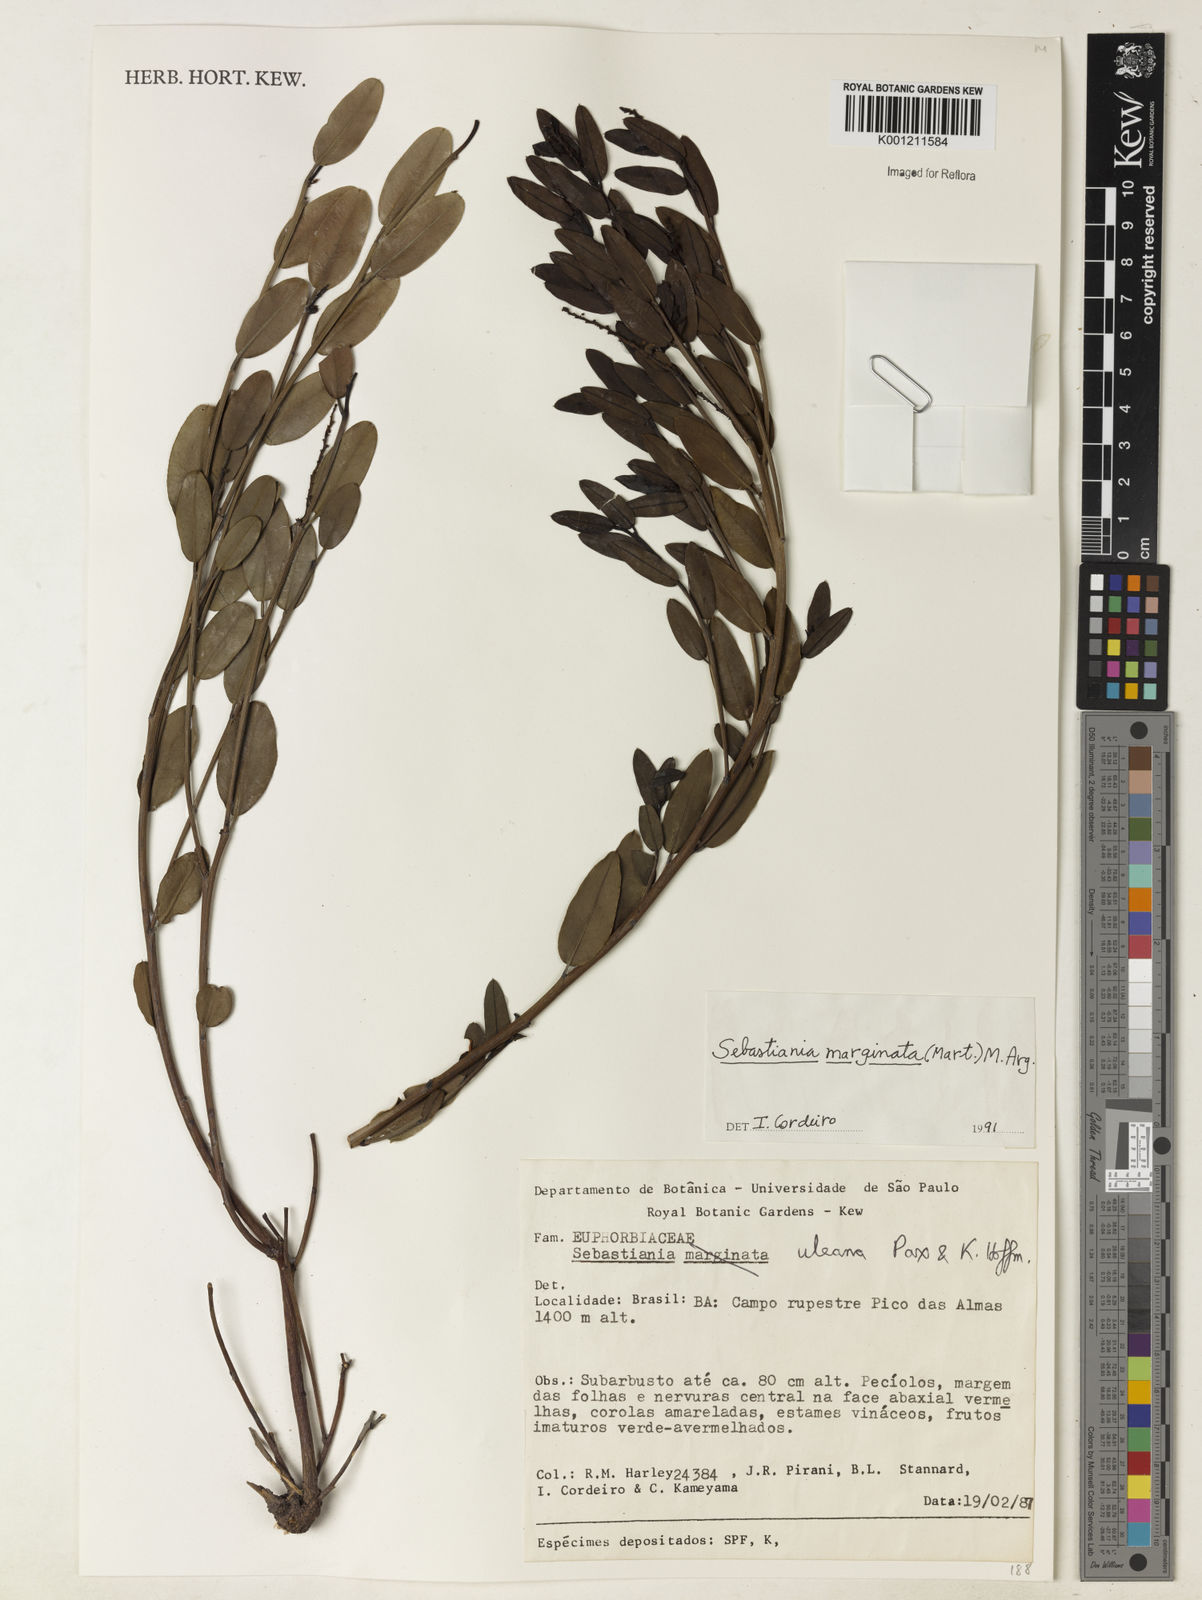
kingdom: Plantae
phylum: Tracheophyta
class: Magnoliopsida
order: Malpighiales
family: Euphorbiaceae
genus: Microstachys
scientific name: Microstachys
